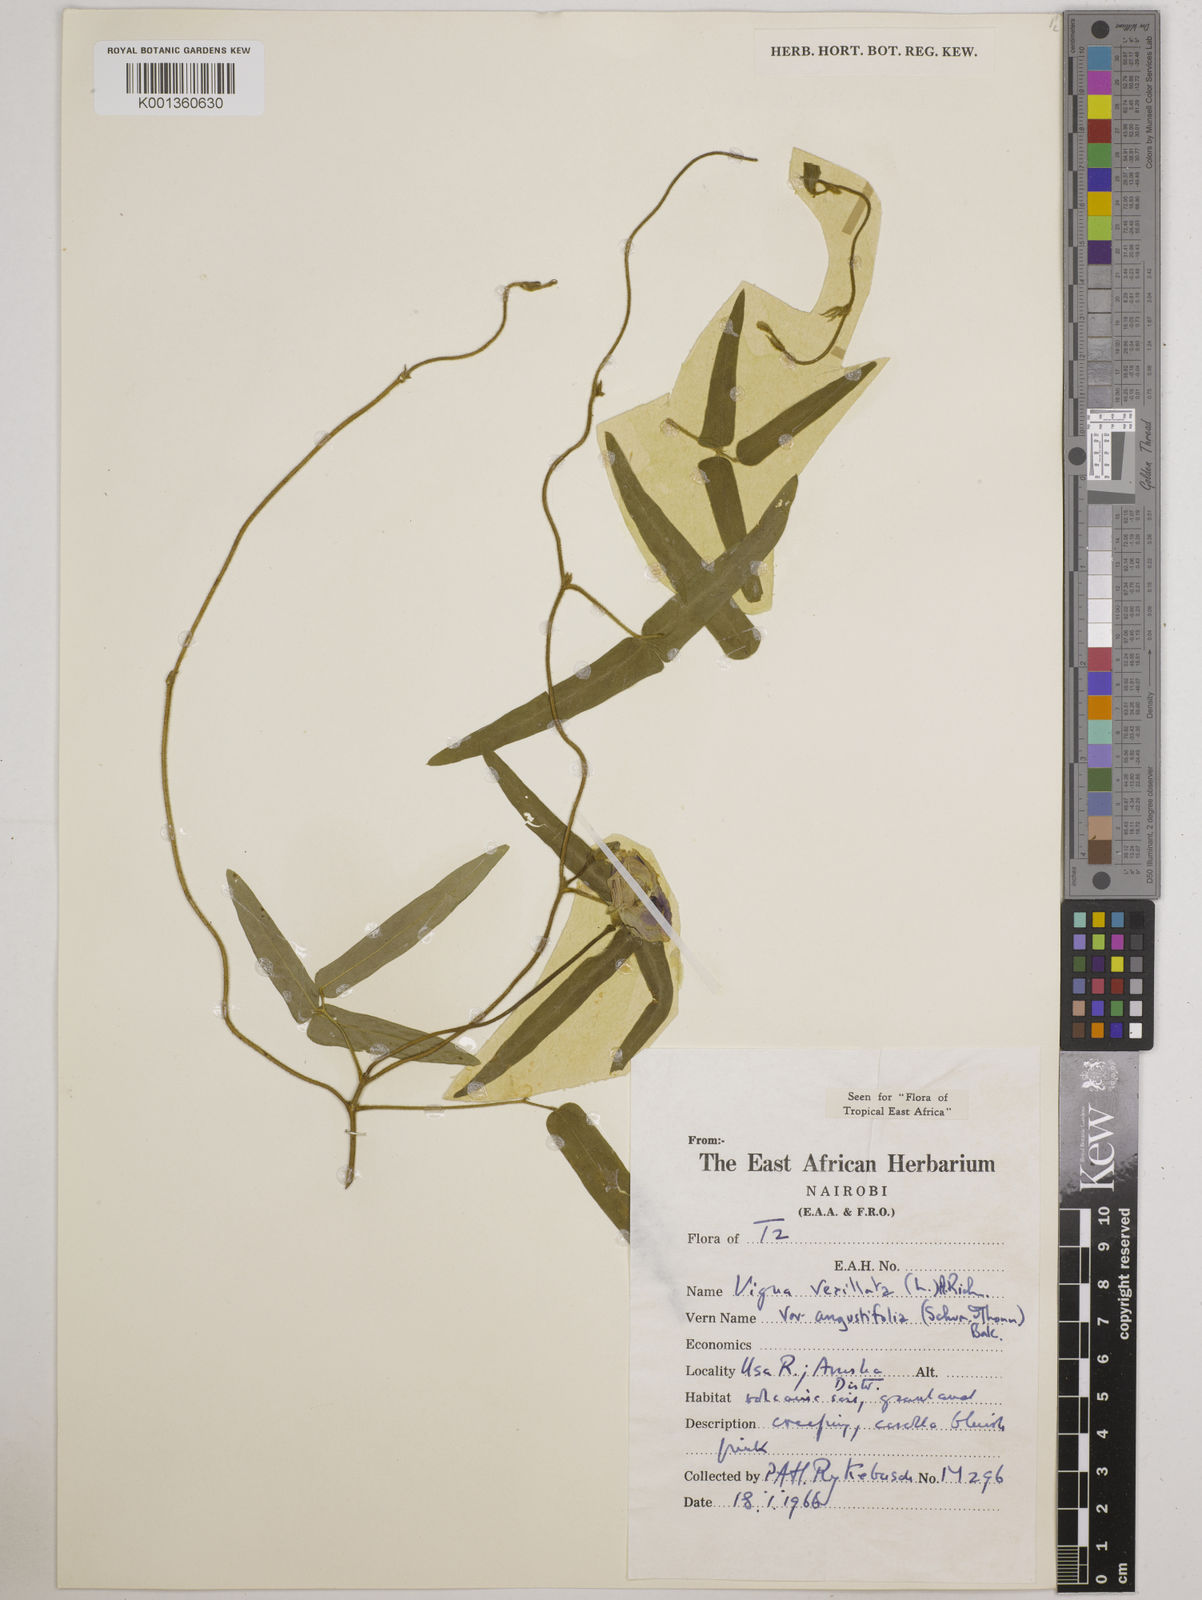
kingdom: Plantae
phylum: Tracheophyta
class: Magnoliopsida
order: Fabales
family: Fabaceae
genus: Vigna
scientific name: Vigna vexillata
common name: Zombi pea
